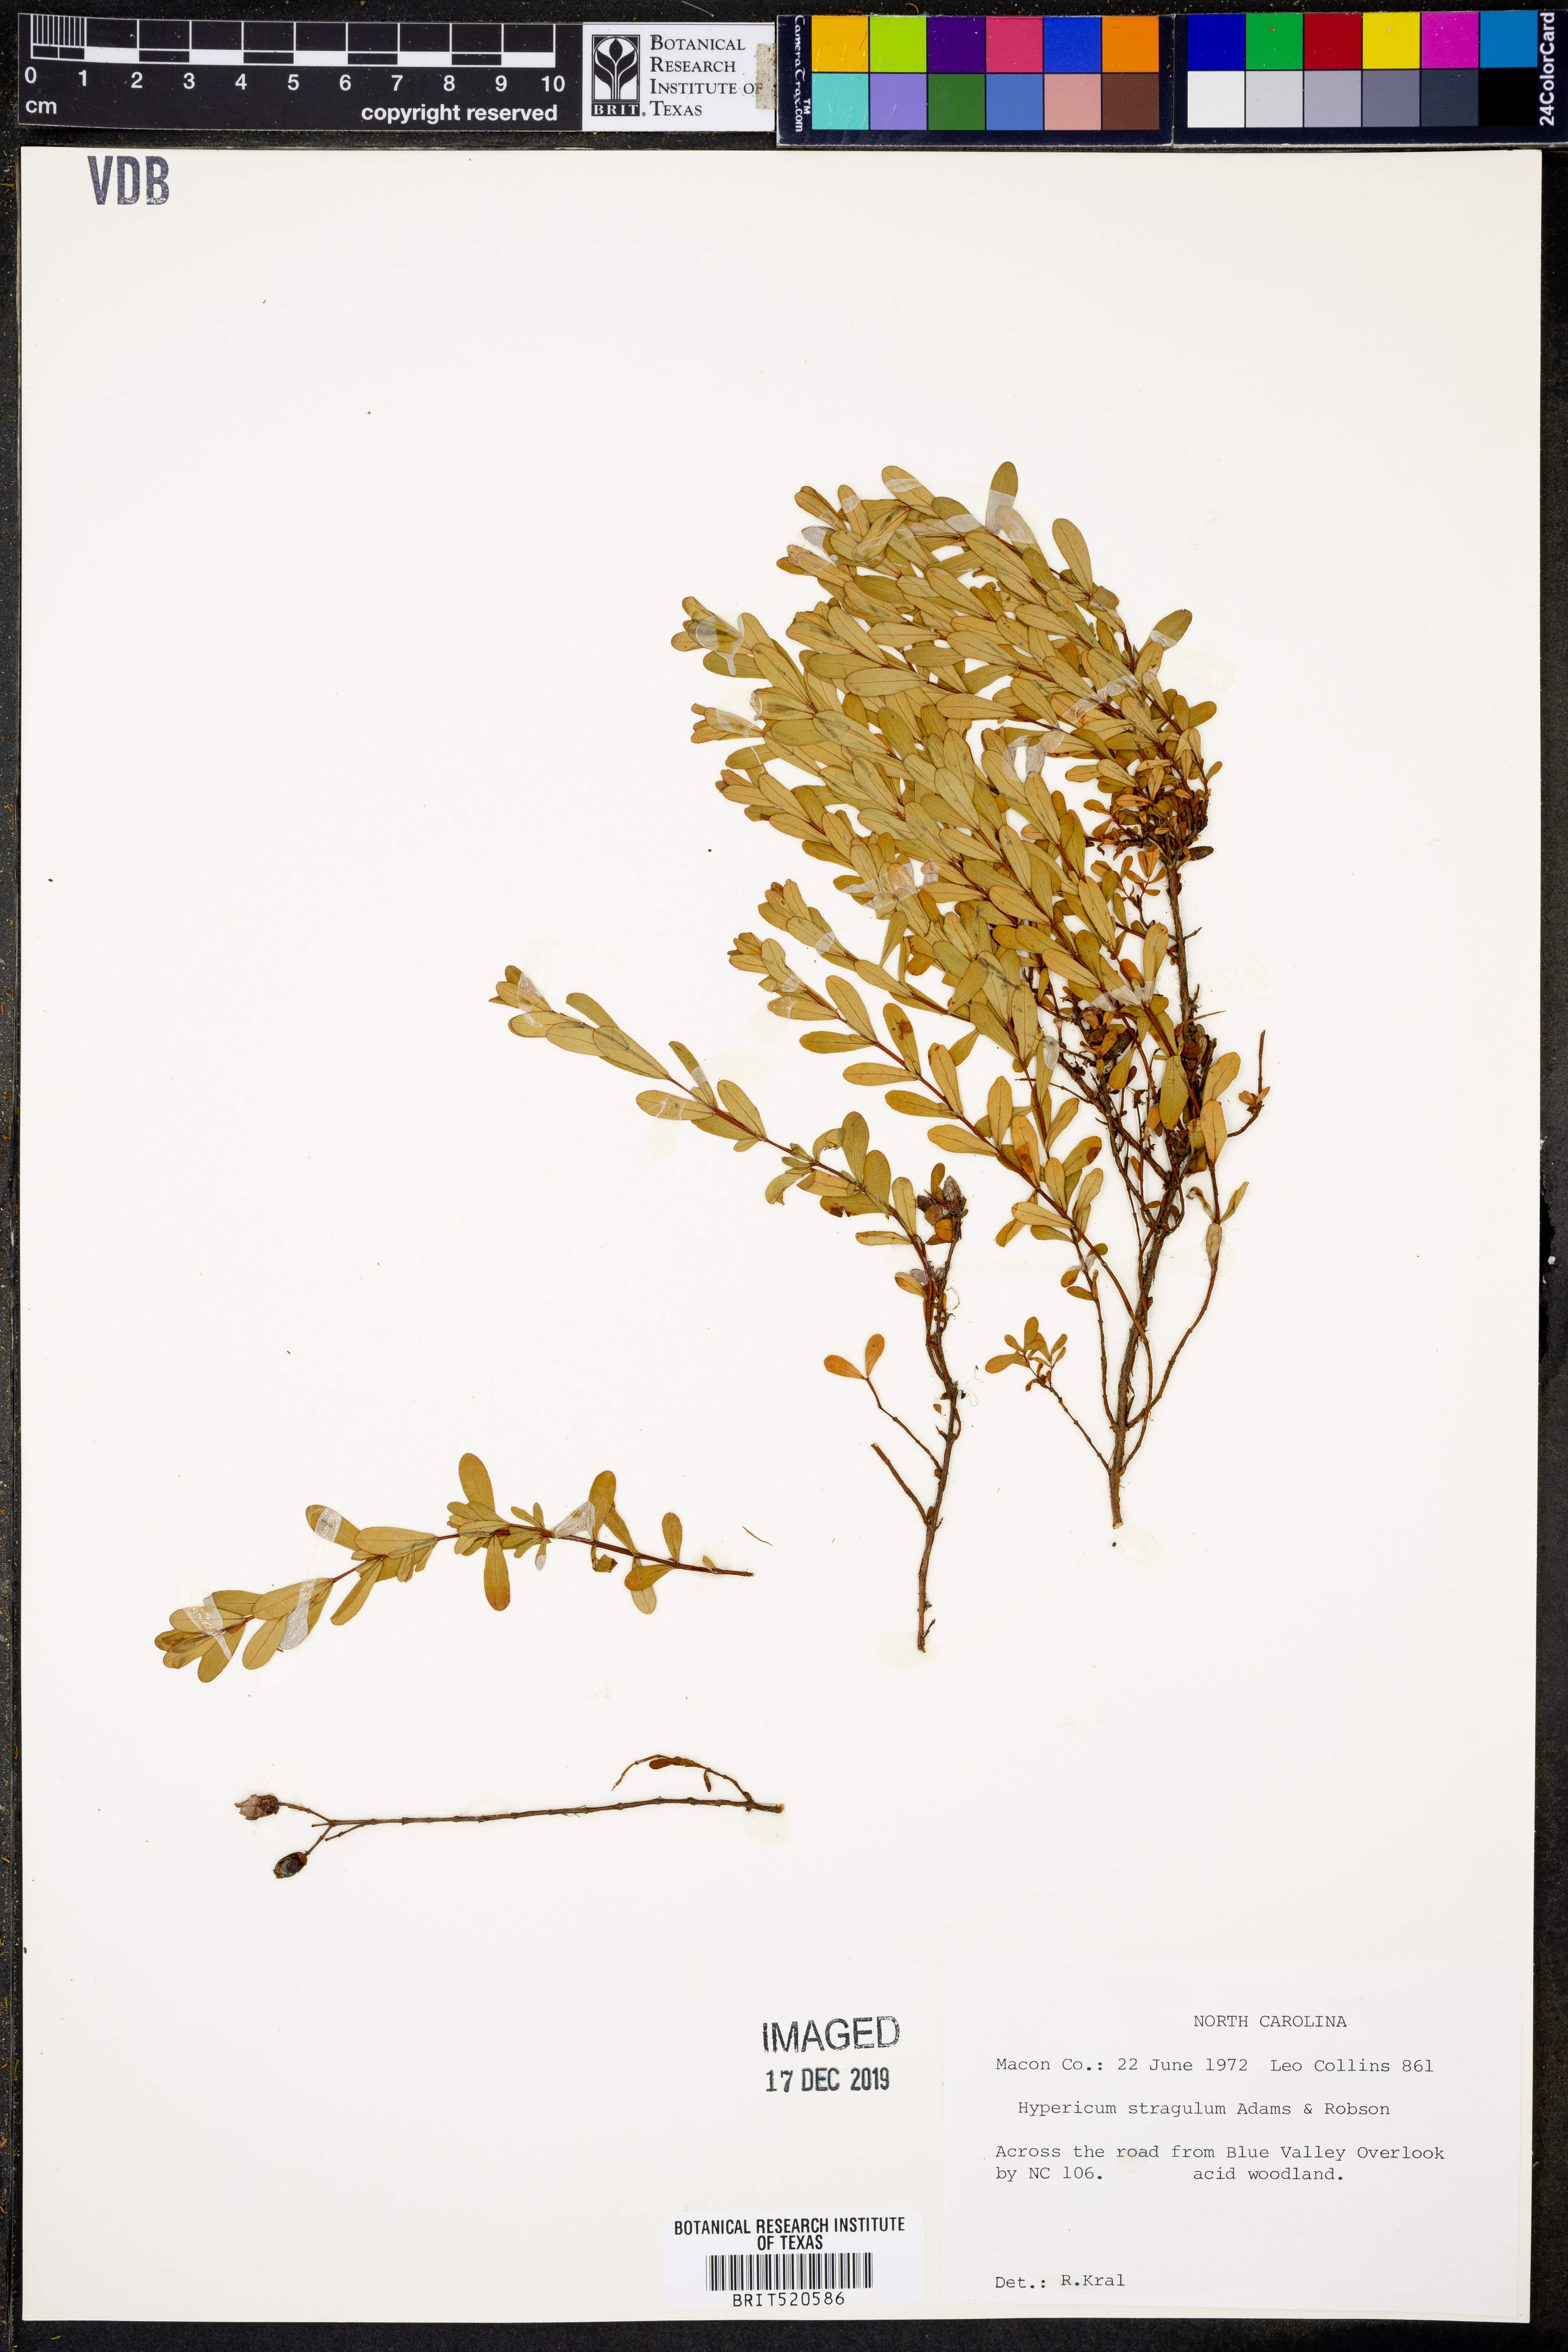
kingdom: Plantae
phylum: Tracheophyta
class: Magnoliopsida
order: Malpighiales
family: Hypericaceae
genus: Hypericum
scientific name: Hypericum hypericoides
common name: St. andrew's cross
